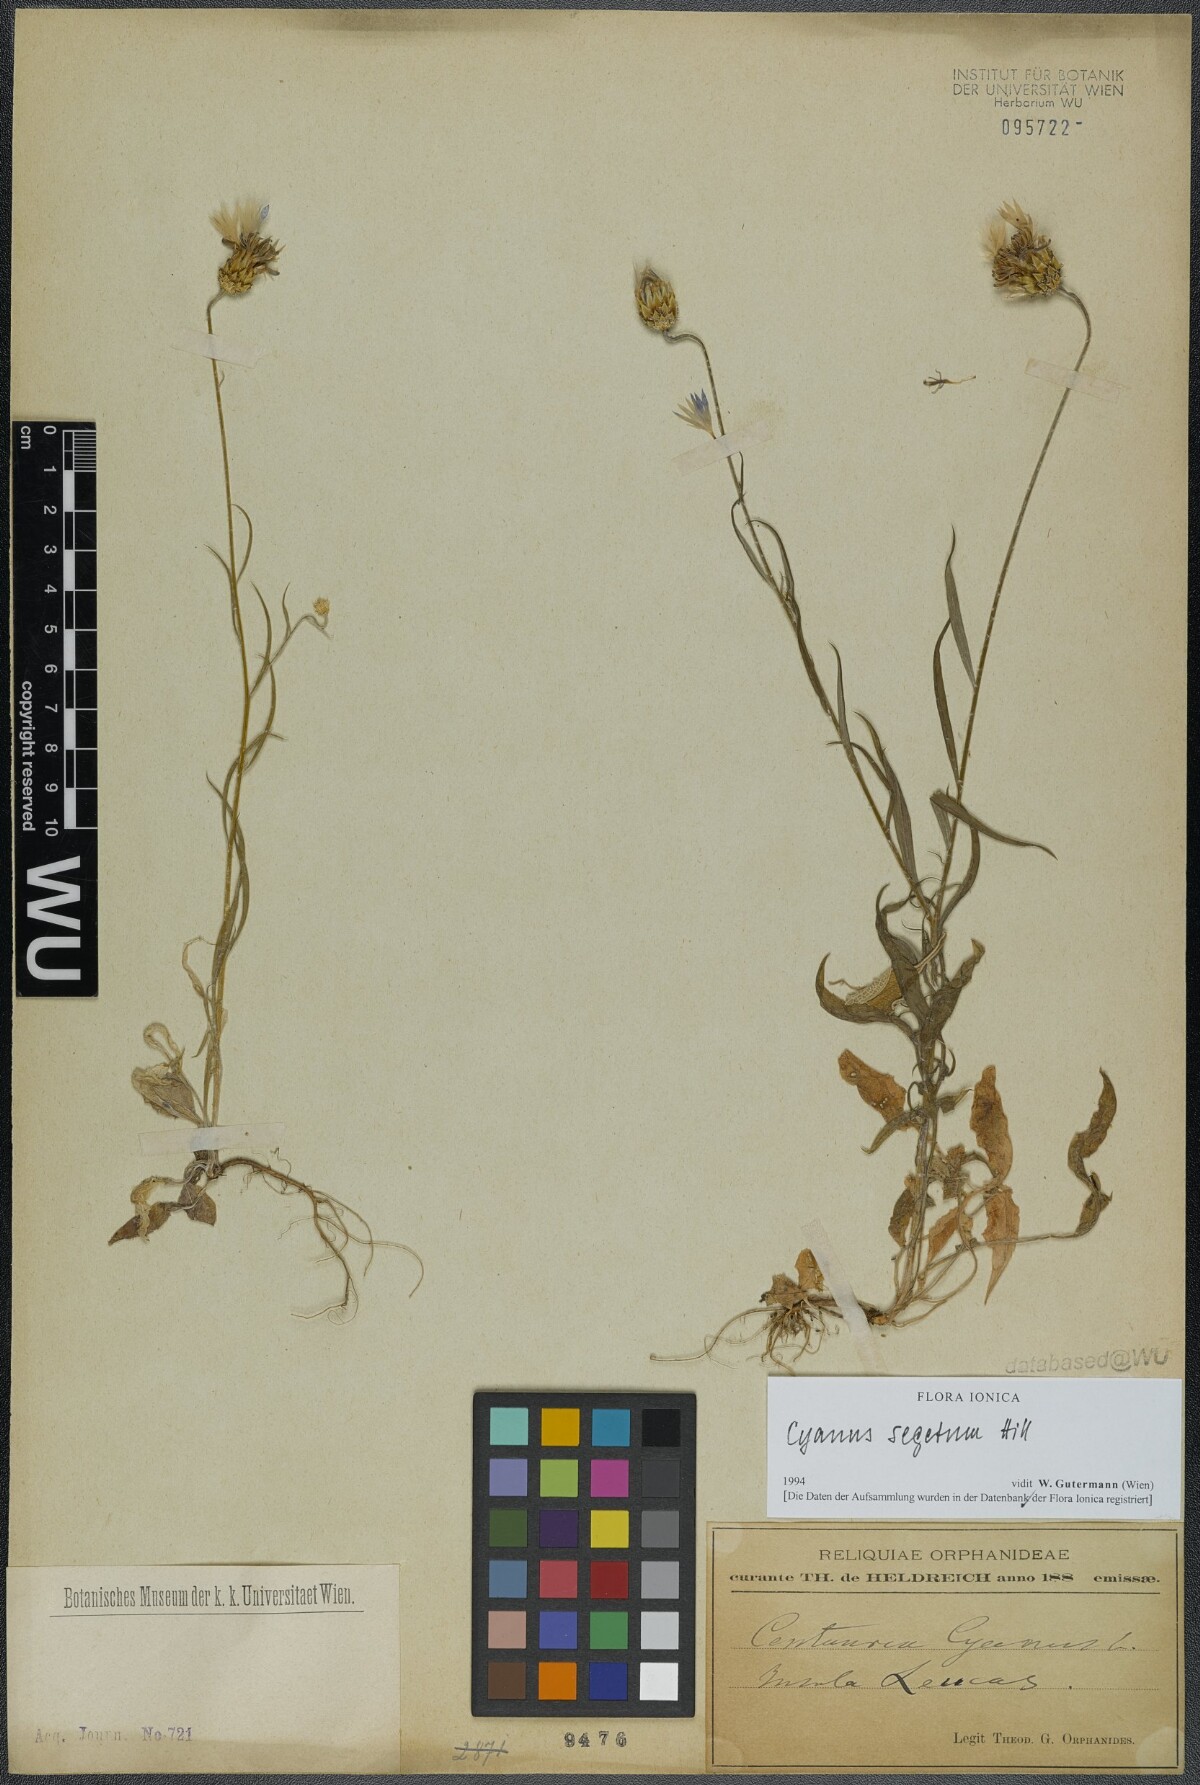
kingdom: Plantae
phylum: Tracheophyta
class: Magnoliopsida
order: Asterales
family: Asteraceae
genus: Centaurea
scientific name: Centaurea cyanus
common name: Cornflower
